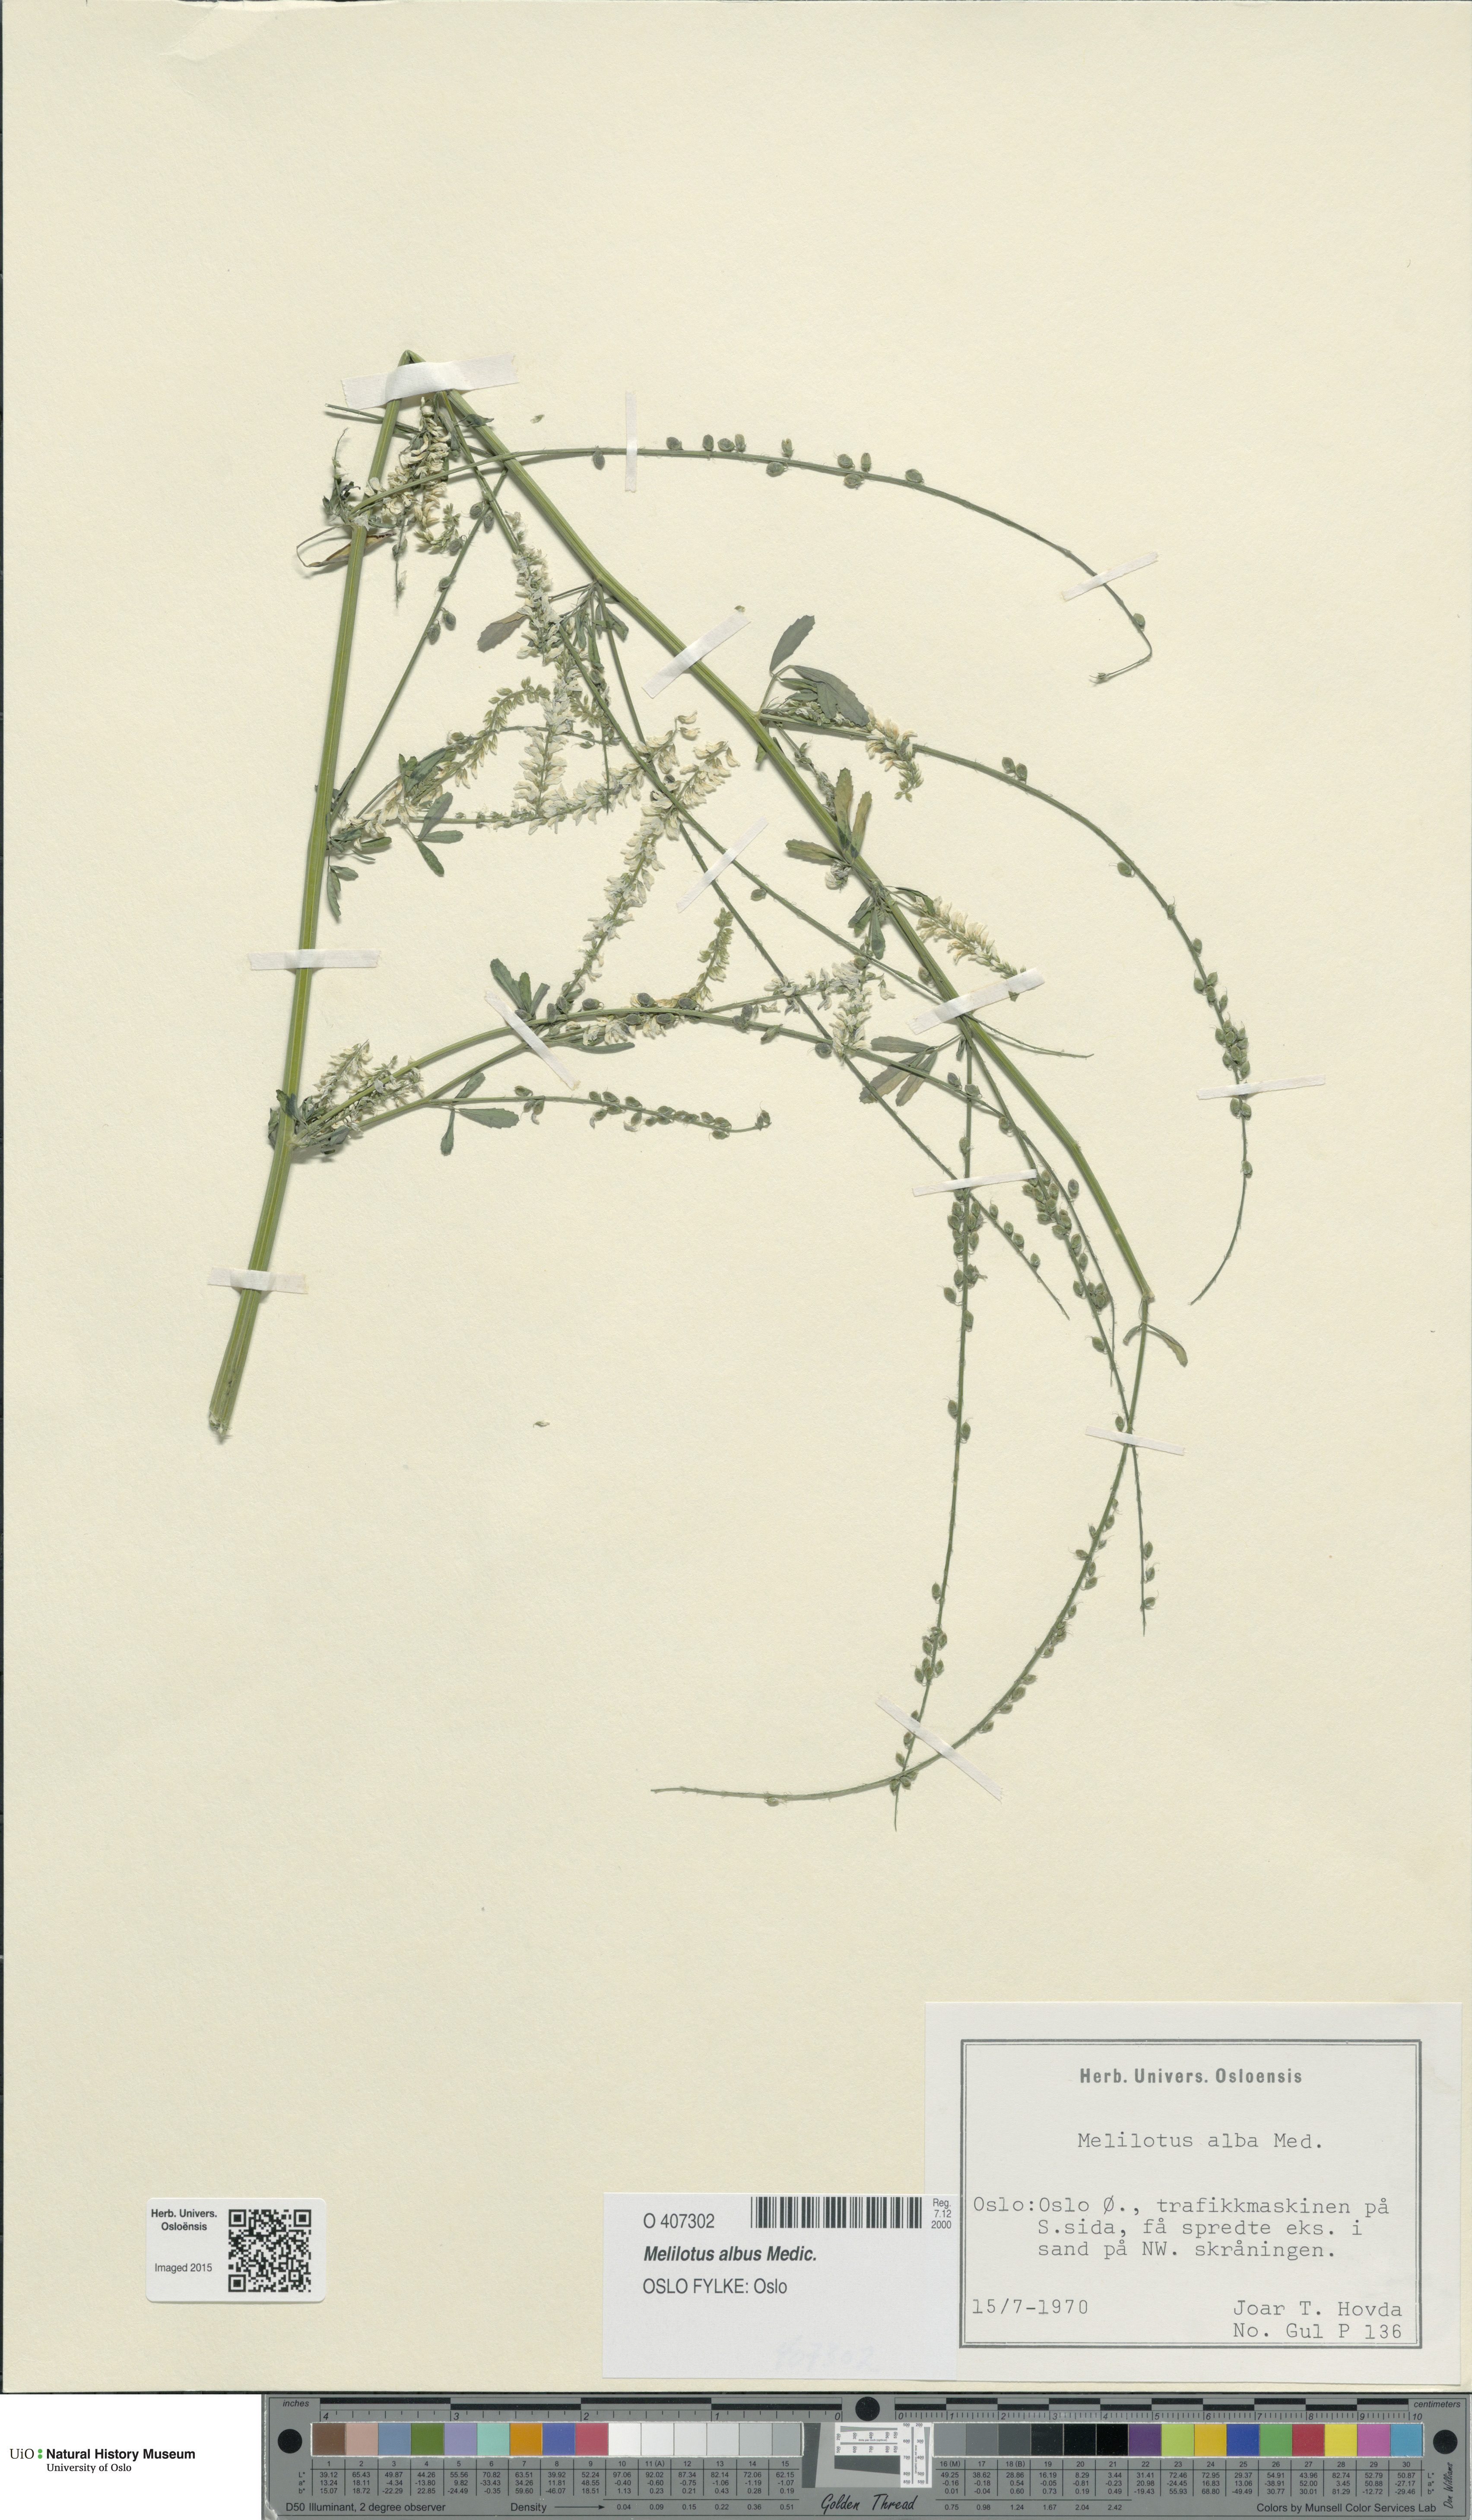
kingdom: Plantae
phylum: Tracheophyta
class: Magnoliopsida
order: Fabales
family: Fabaceae
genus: Melilotus
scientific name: Melilotus albus
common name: White melilot
